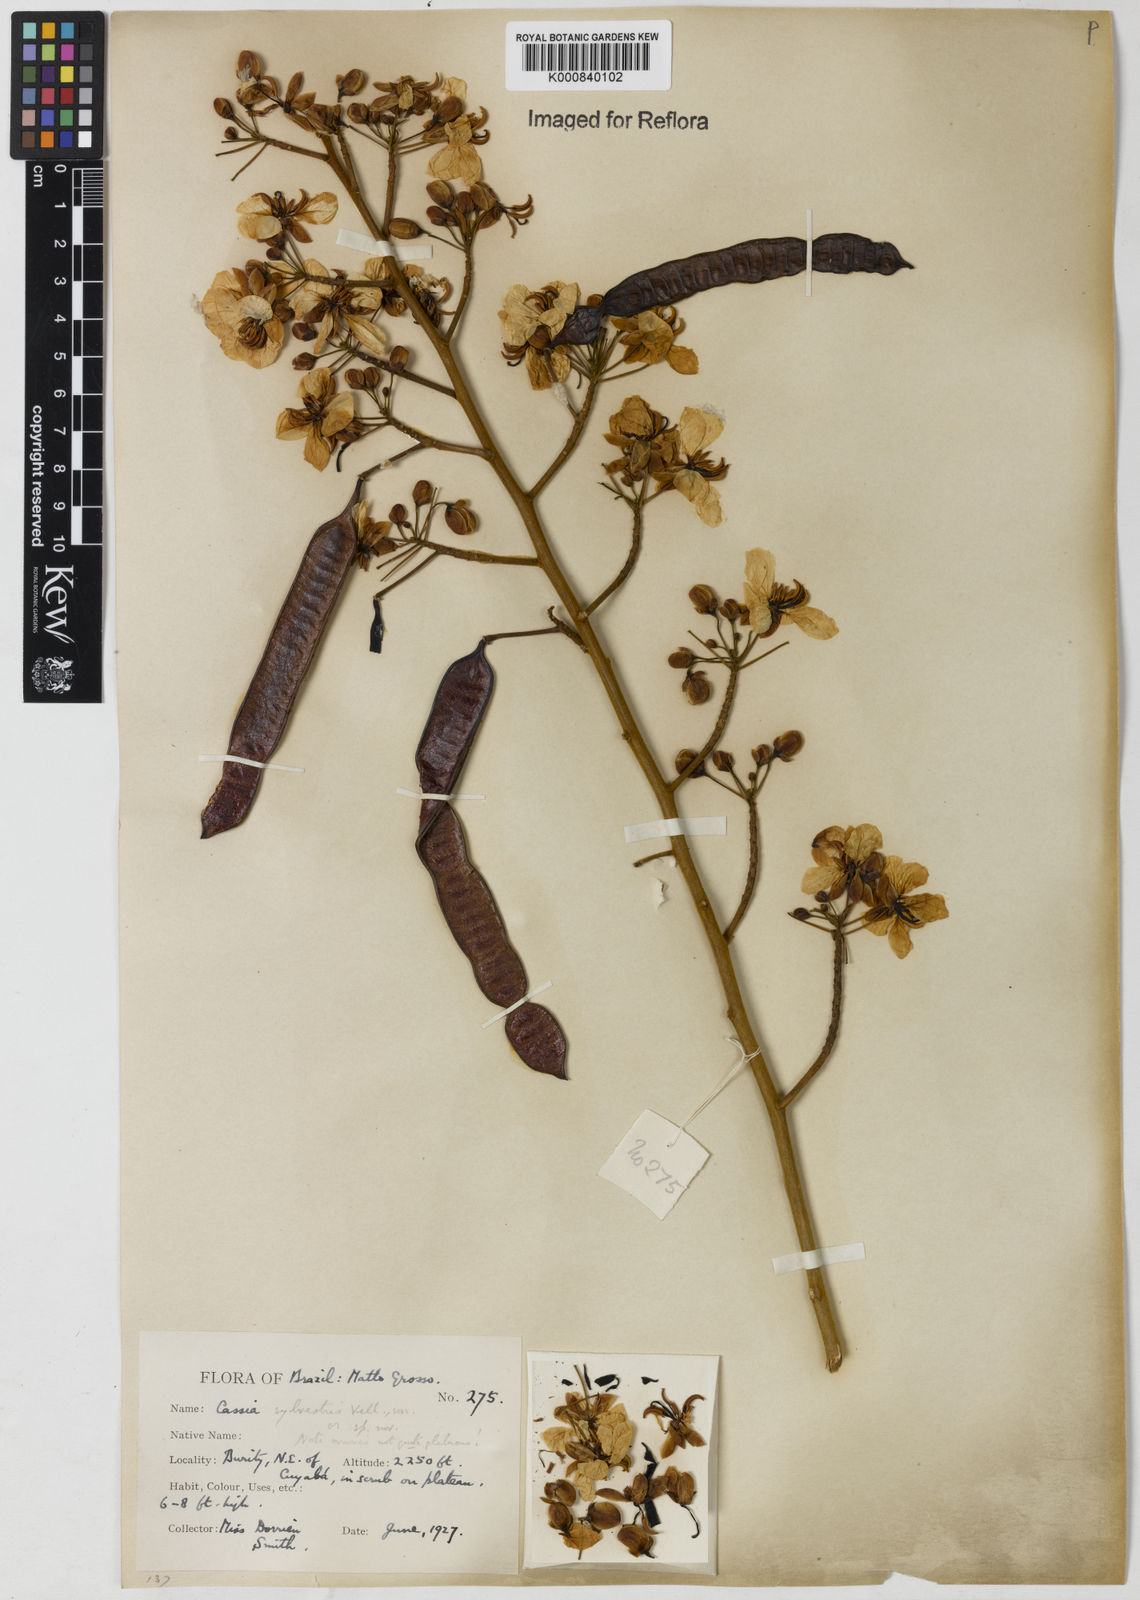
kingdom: Plantae
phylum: Tracheophyta
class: Magnoliopsida
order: Fabales
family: Fabaceae
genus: Senna
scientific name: Senna silvestris
